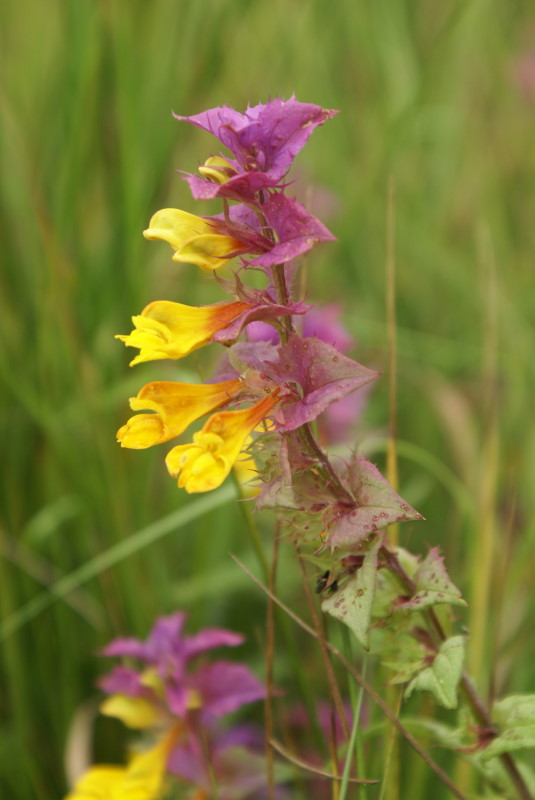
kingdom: Plantae
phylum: Tracheophyta
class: Magnoliopsida
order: Lamiales
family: Orobanchaceae
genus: Melampyrum
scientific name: Melampyrum nemorosum
